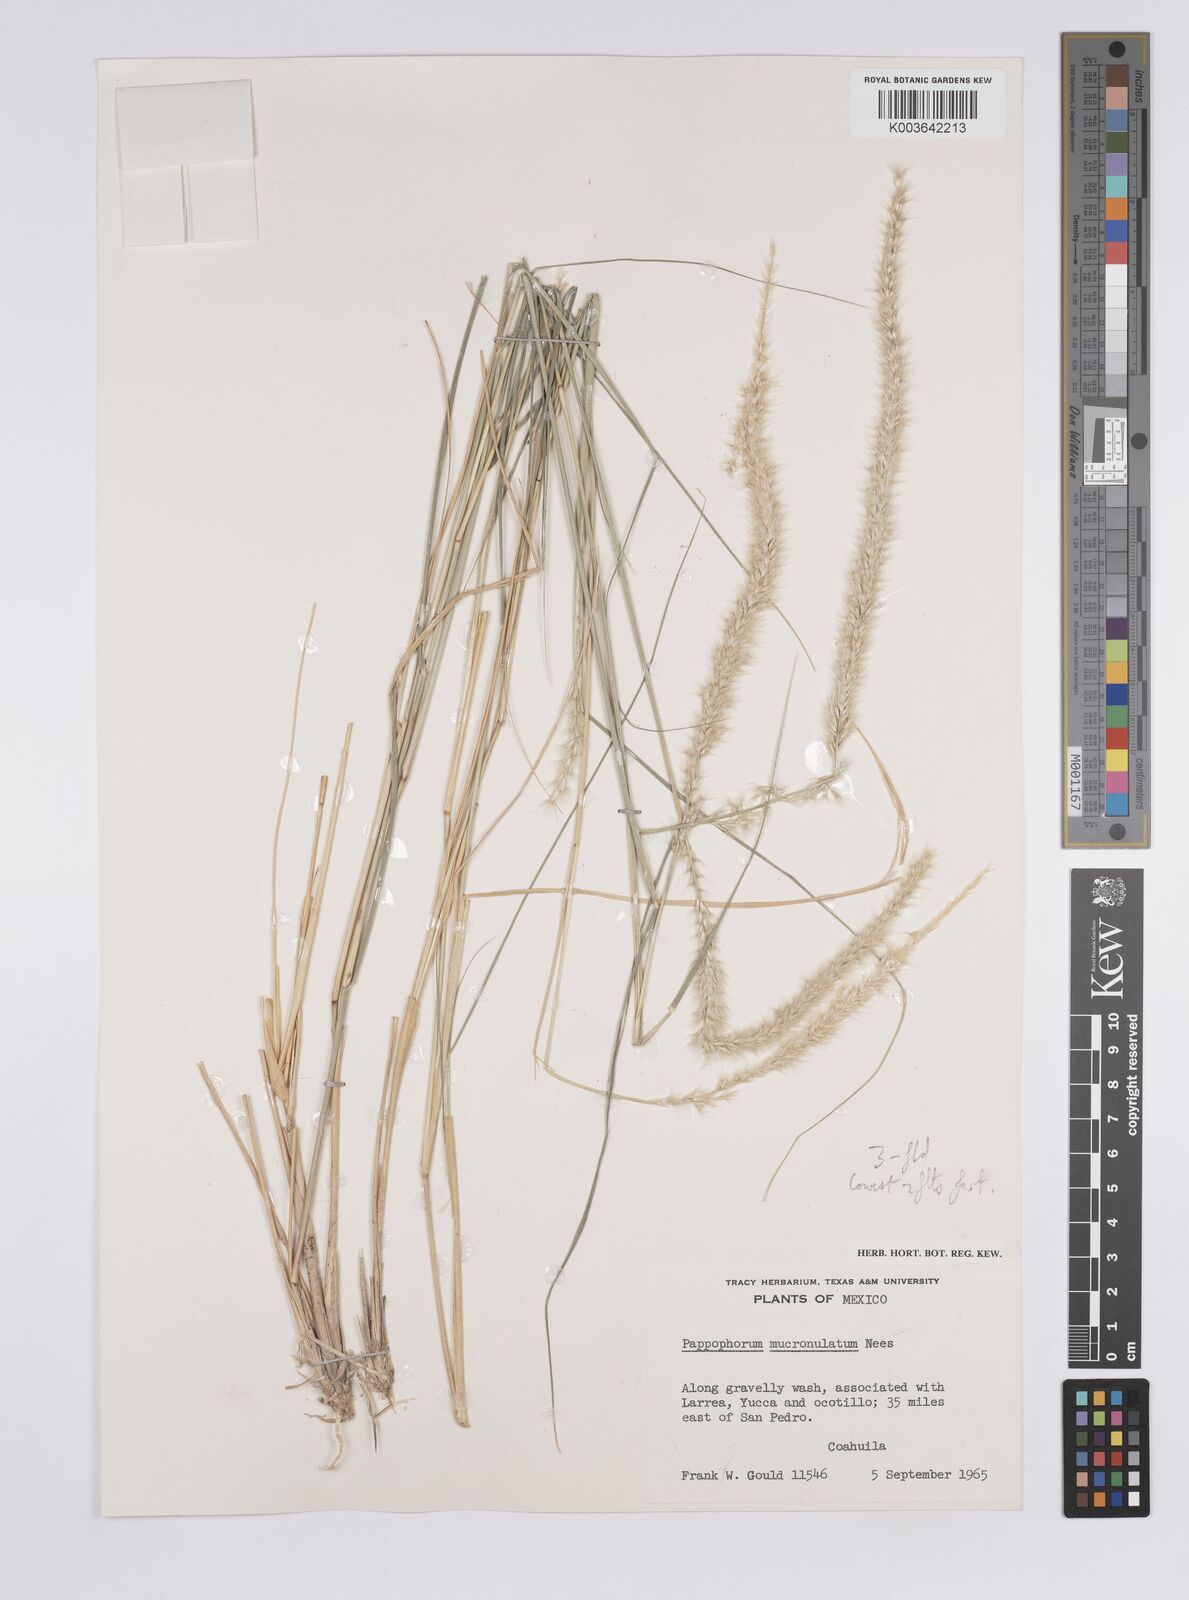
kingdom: Plantae
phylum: Tracheophyta
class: Liliopsida
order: Poales
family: Poaceae
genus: Pappophorum
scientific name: Pappophorum mucronulatum
